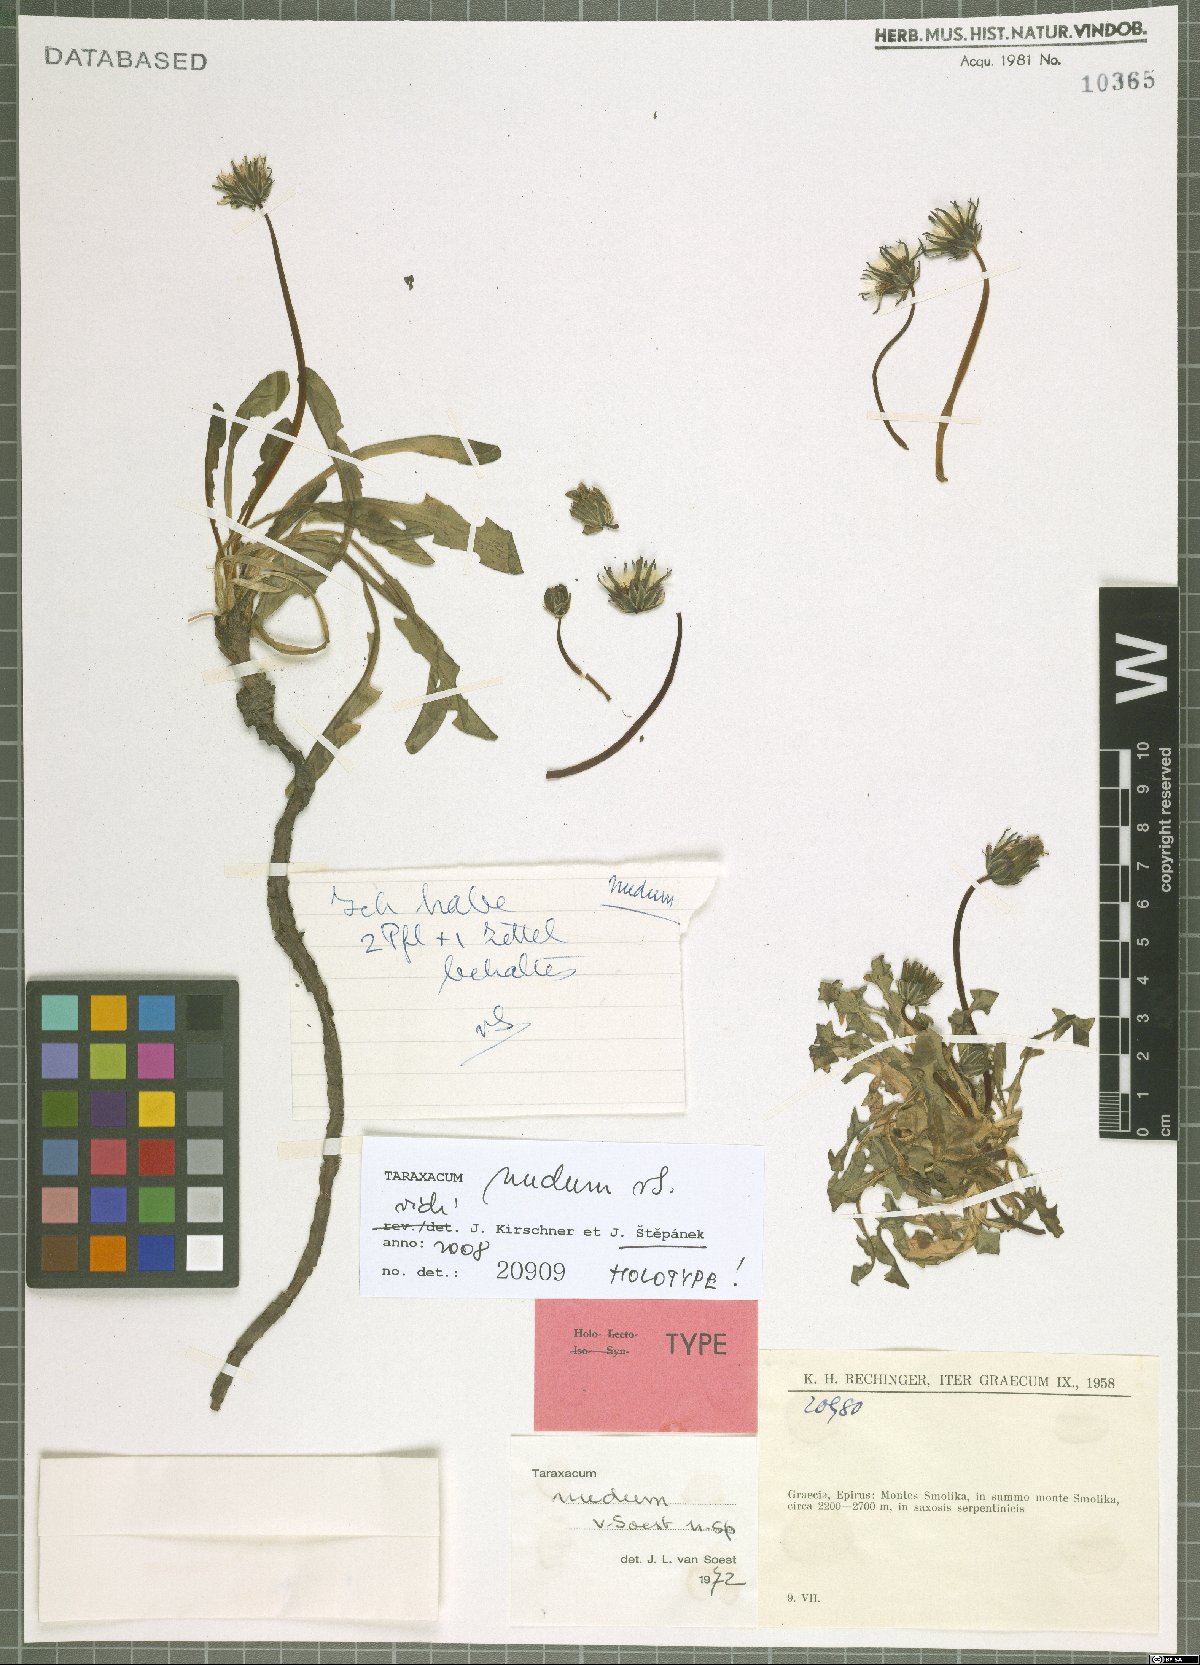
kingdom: Plantae
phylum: Tracheophyta
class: Magnoliopsida
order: Asterales
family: Asteraceae
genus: Taraxacum
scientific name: Taraxacum nudum
